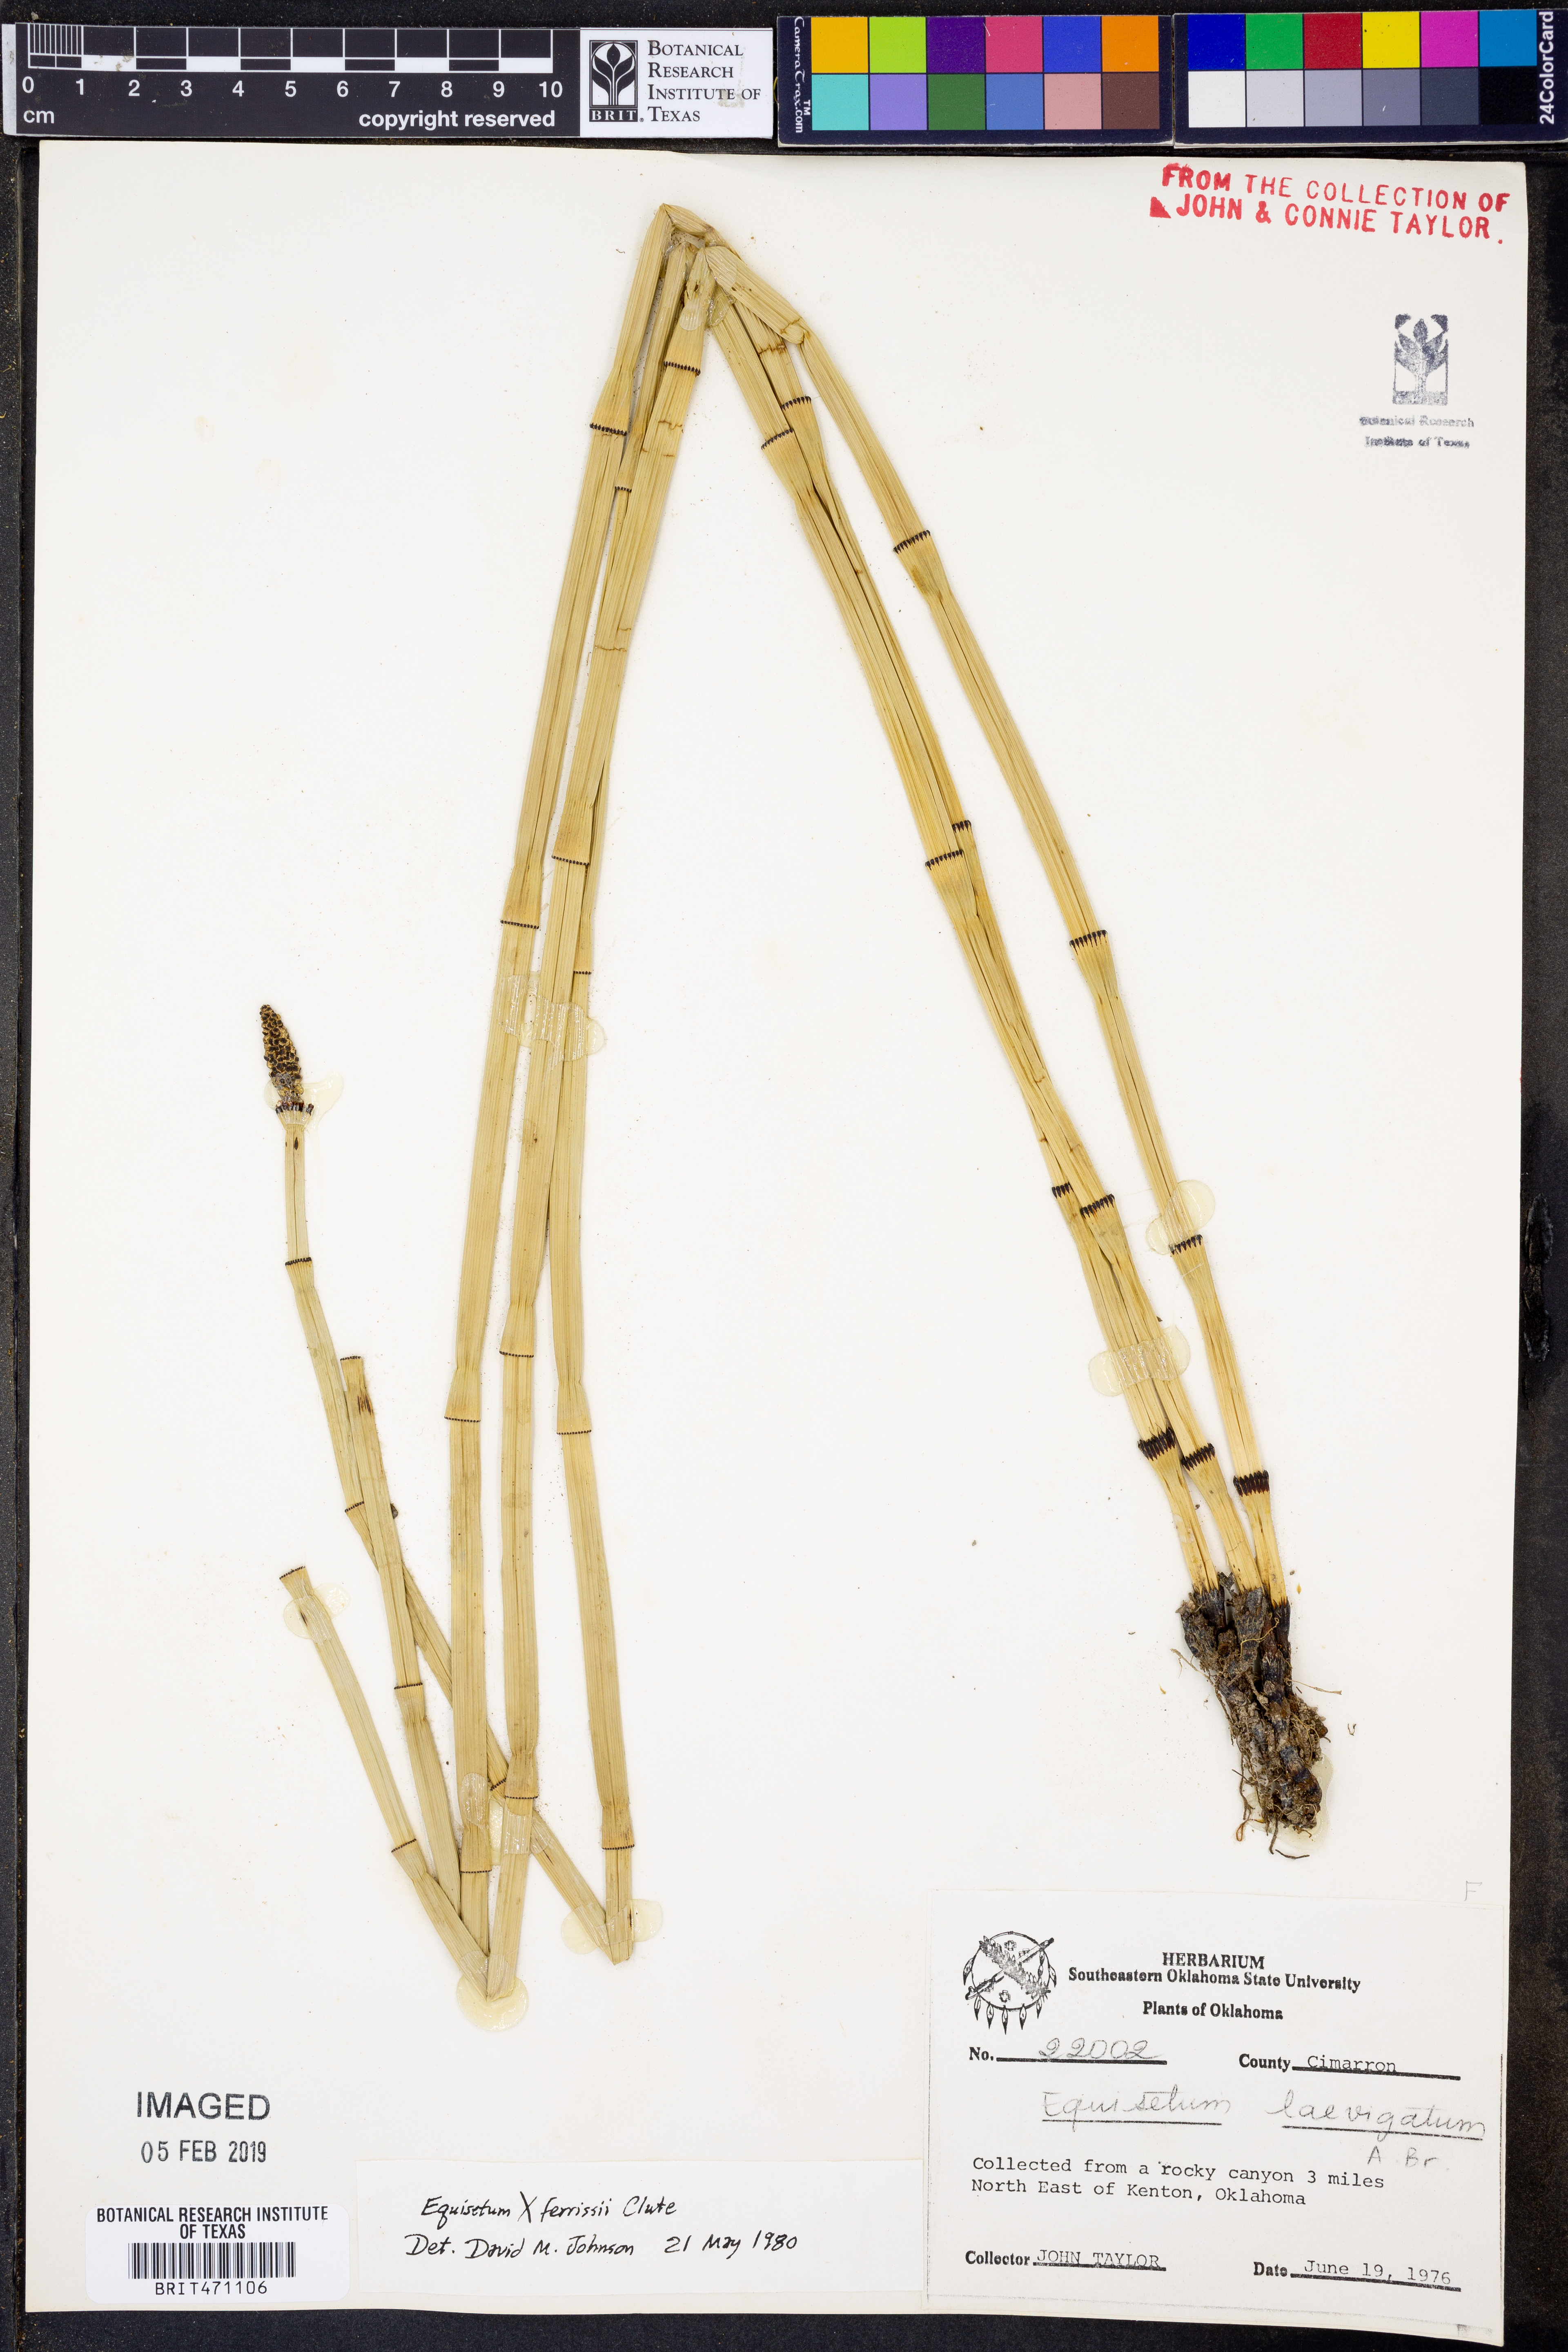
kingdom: Plantae
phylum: Tracheophyta
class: Polypodiopsida
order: Equisetales
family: Equisetaceae
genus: Equisetum
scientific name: Equisetum laevigatum
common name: Smooth scouring-rush
